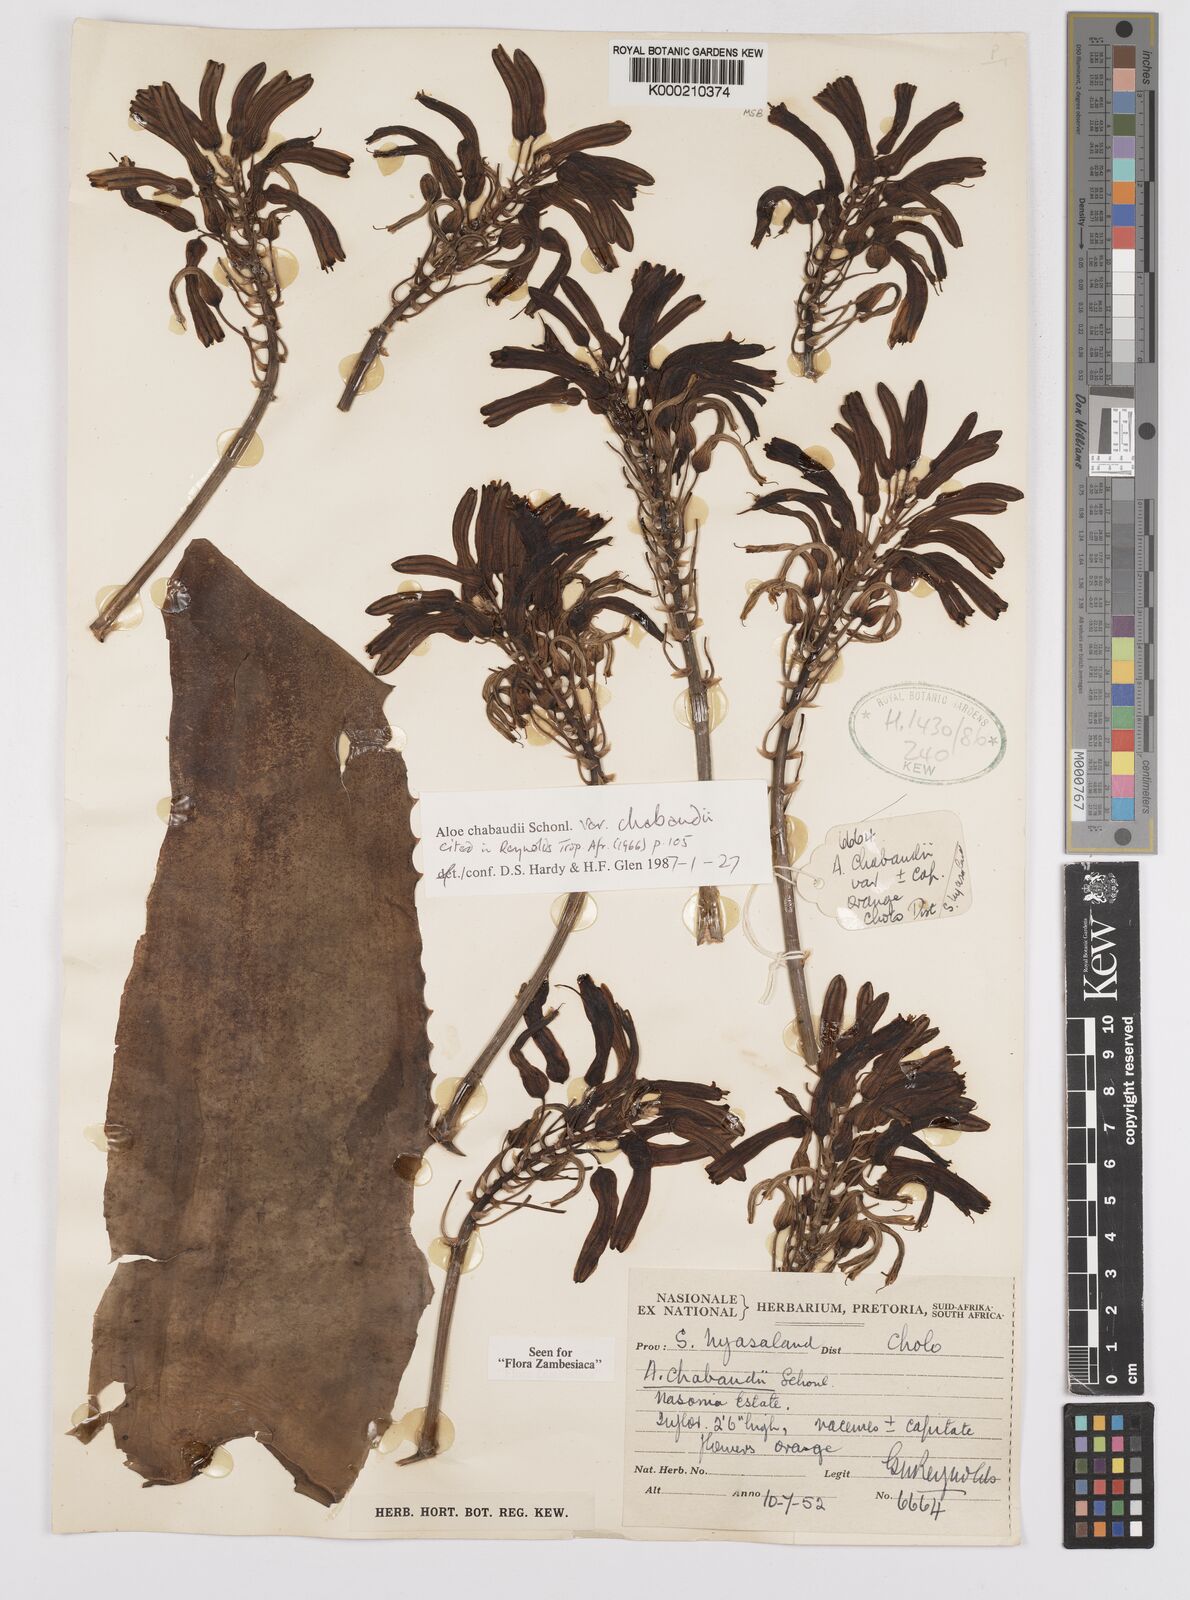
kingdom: Plantae
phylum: Tracheophyta
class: Liliopsida
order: Asparagales
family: Asphodelaceae
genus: Aloe
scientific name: Aloe chabaudii
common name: Chabaud's aloe
